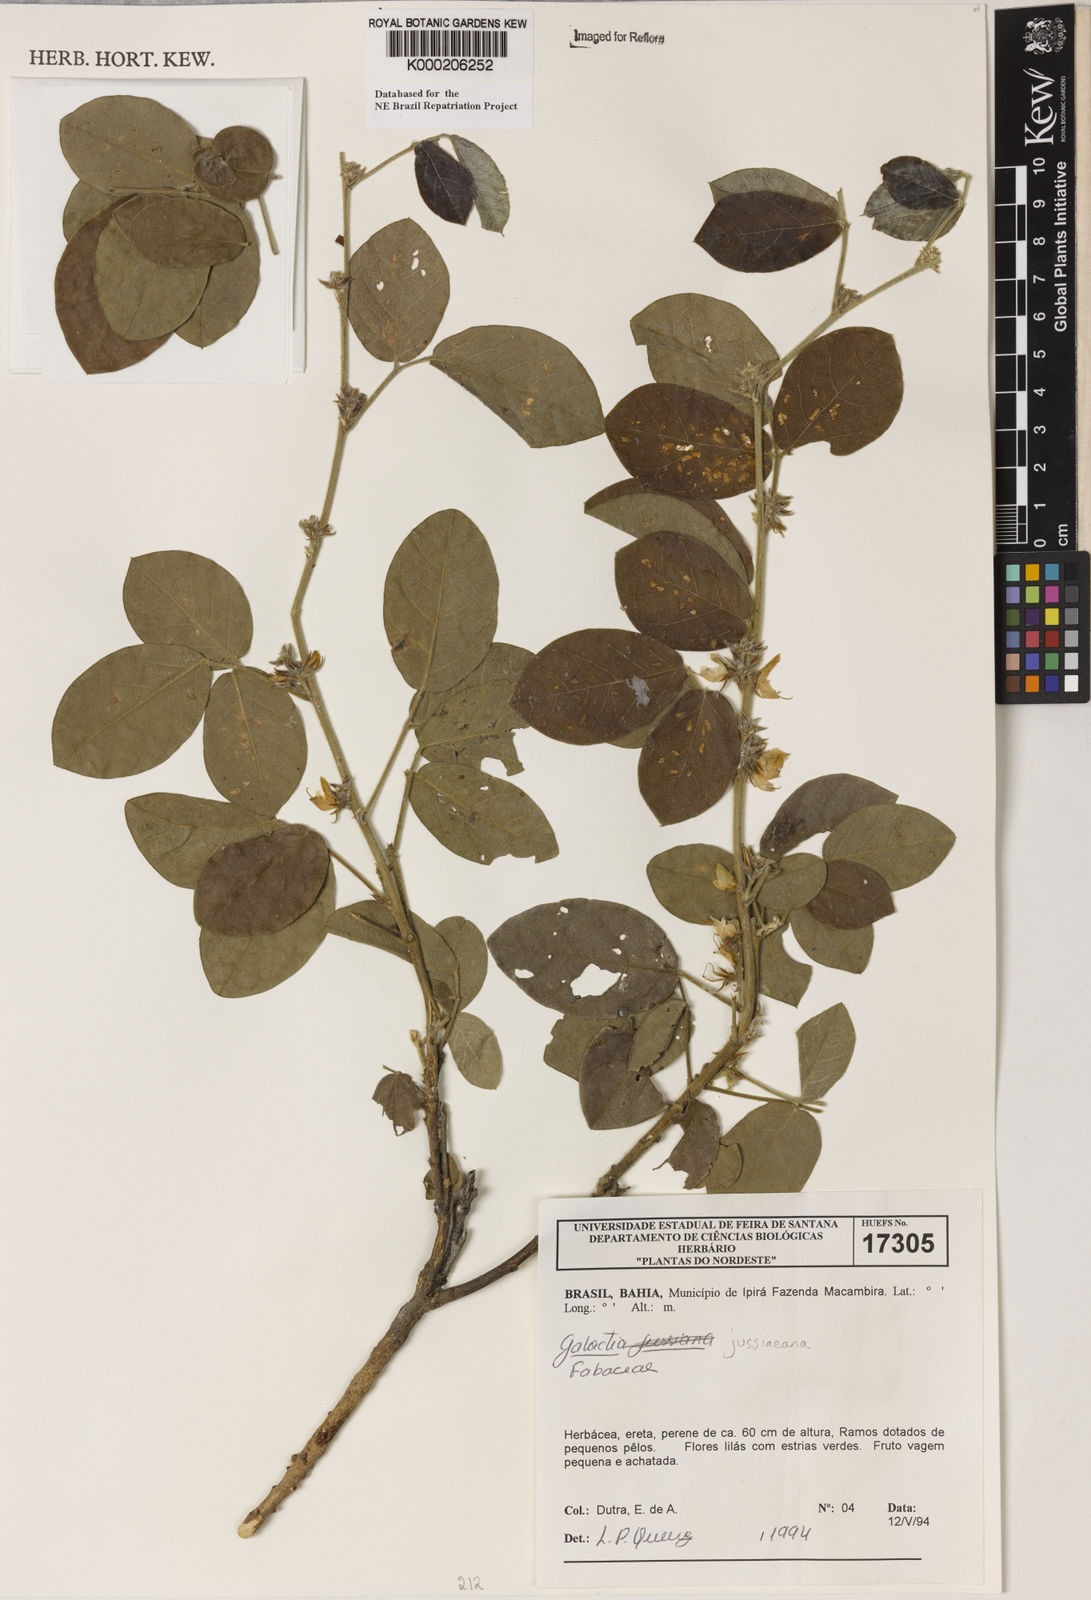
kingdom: Plantae
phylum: Tracheophyta
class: Magnoliopsida
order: Fabales
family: Fabaceae
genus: Galactia
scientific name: Galactia jussiaeana
